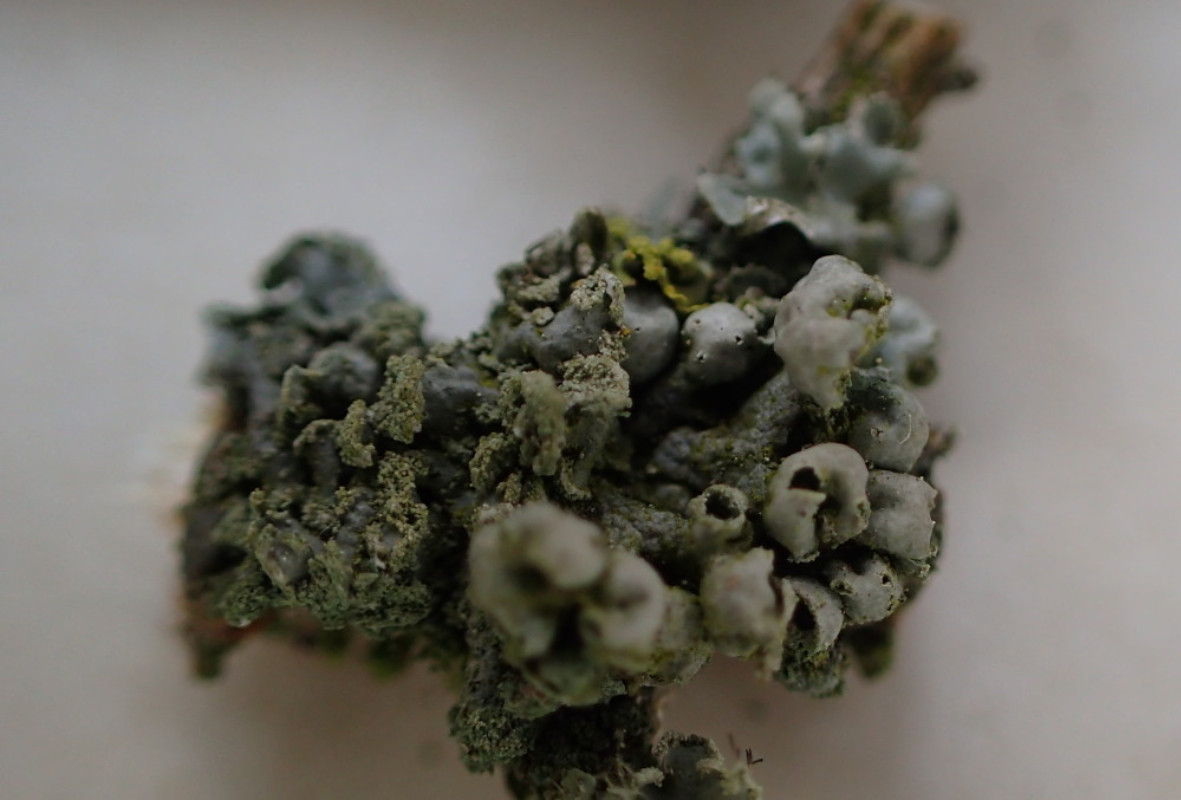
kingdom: Fungi
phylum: Ascomycota
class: Lecanoromycetes
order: Caliciales
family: Physciaceae
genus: Physcia
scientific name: Physcia adscendens
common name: hætte-rosetlav
